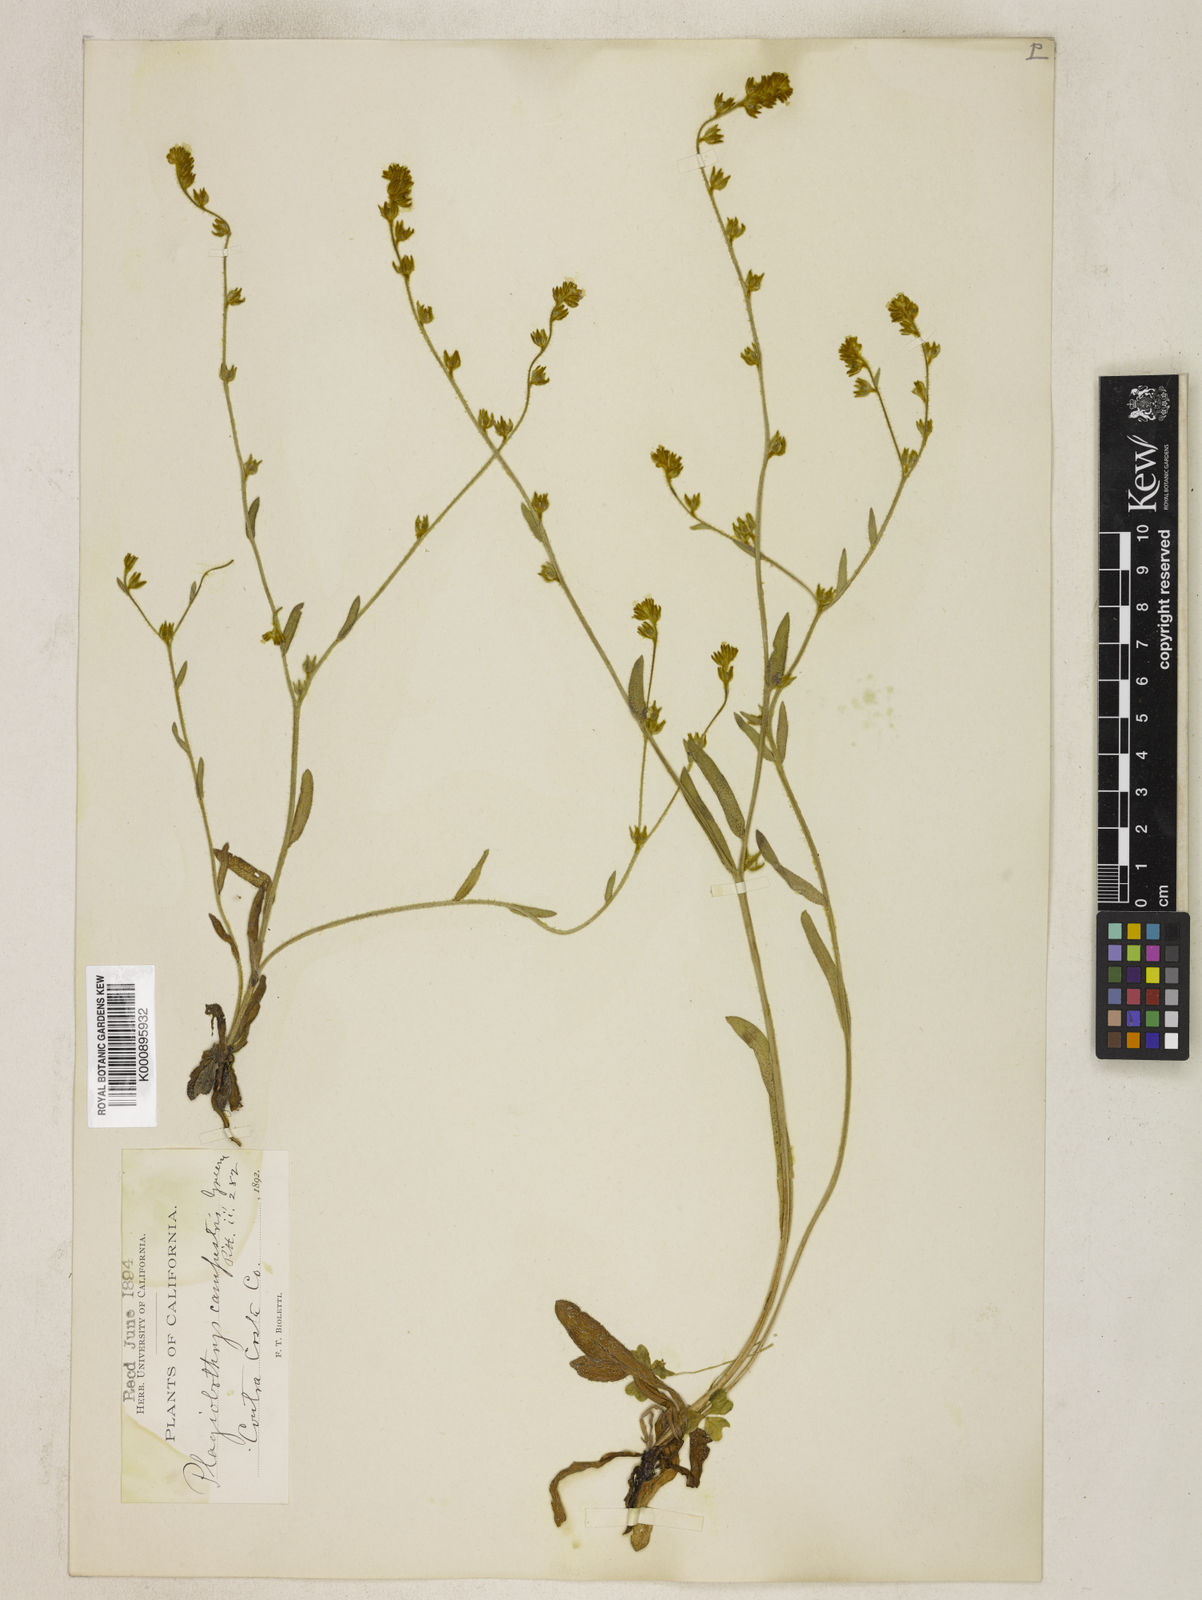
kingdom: Plantae
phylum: Tracheophyta
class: Magnoliopsida
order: Boraginales
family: Boraginaceae
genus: Plagiobothrys
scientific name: Plagiobothrys fulvus
